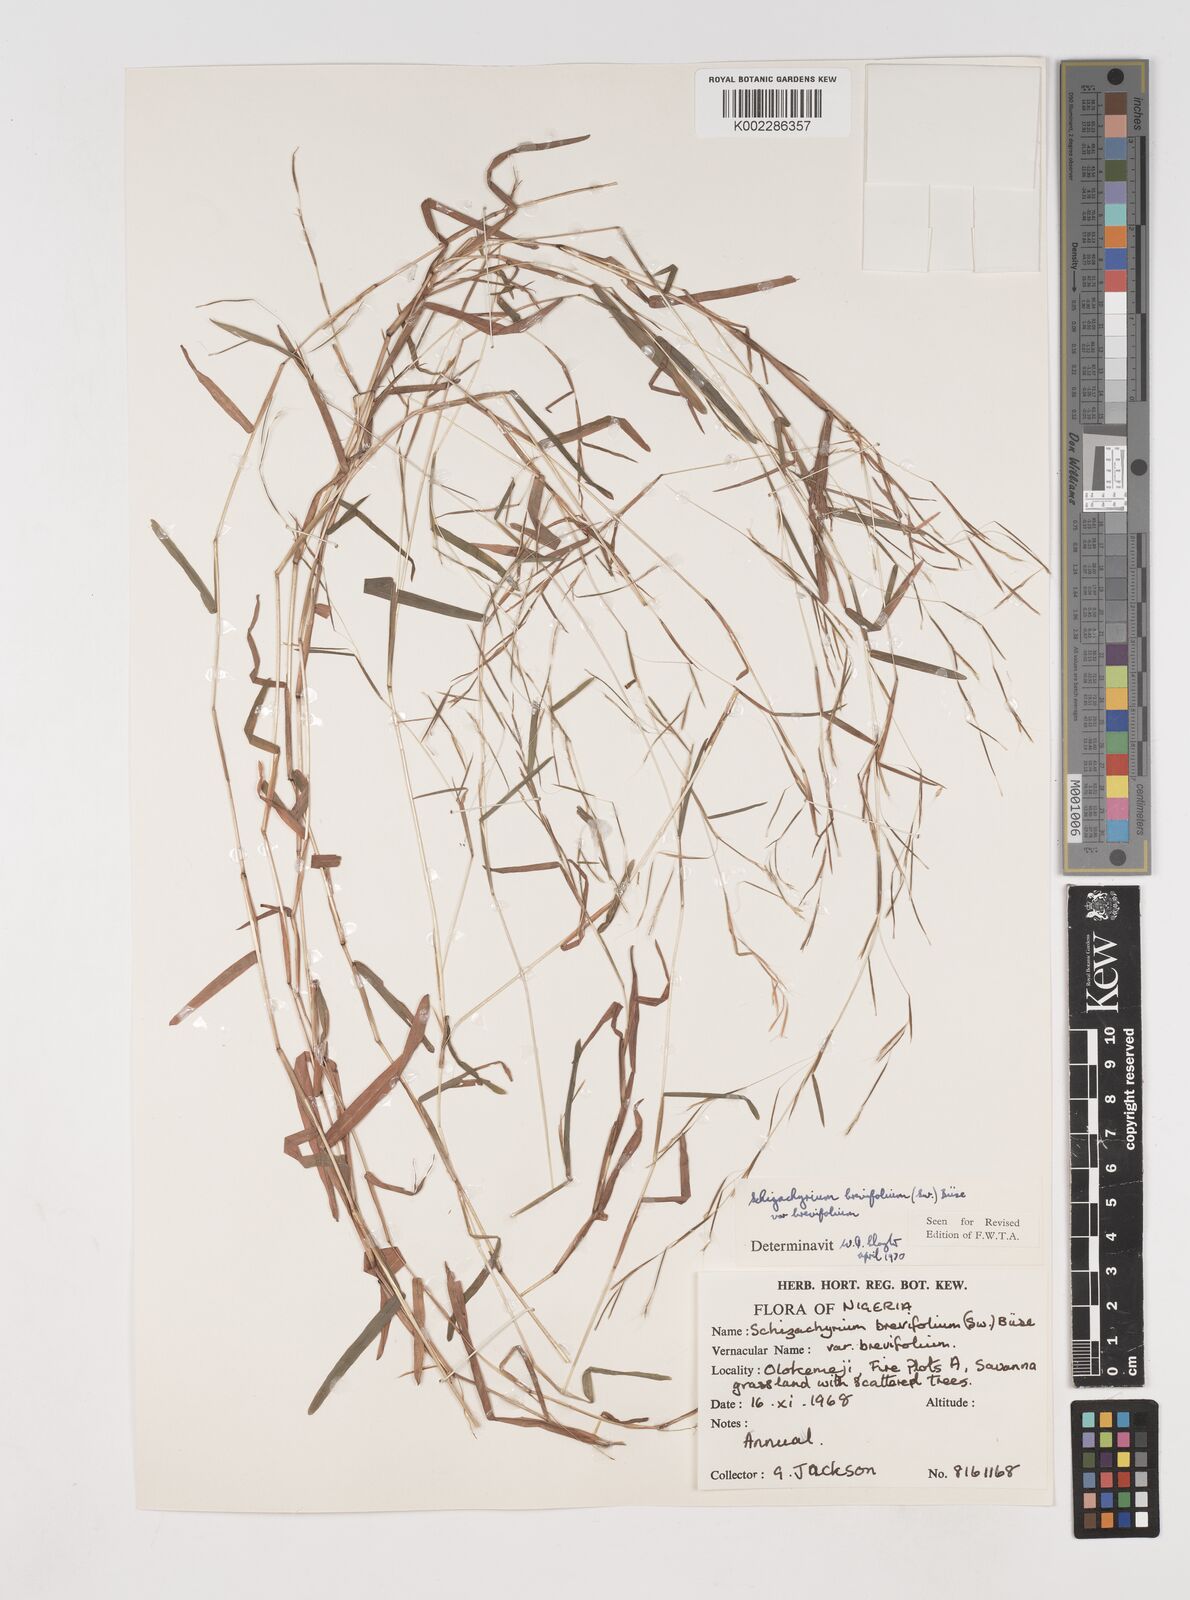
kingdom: Plantae
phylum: Tracheophyta
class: Liliopsida
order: Poales
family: Poaceae
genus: Schizachyrium
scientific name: Schizachyrium brevifolium
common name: Serillo dulce
